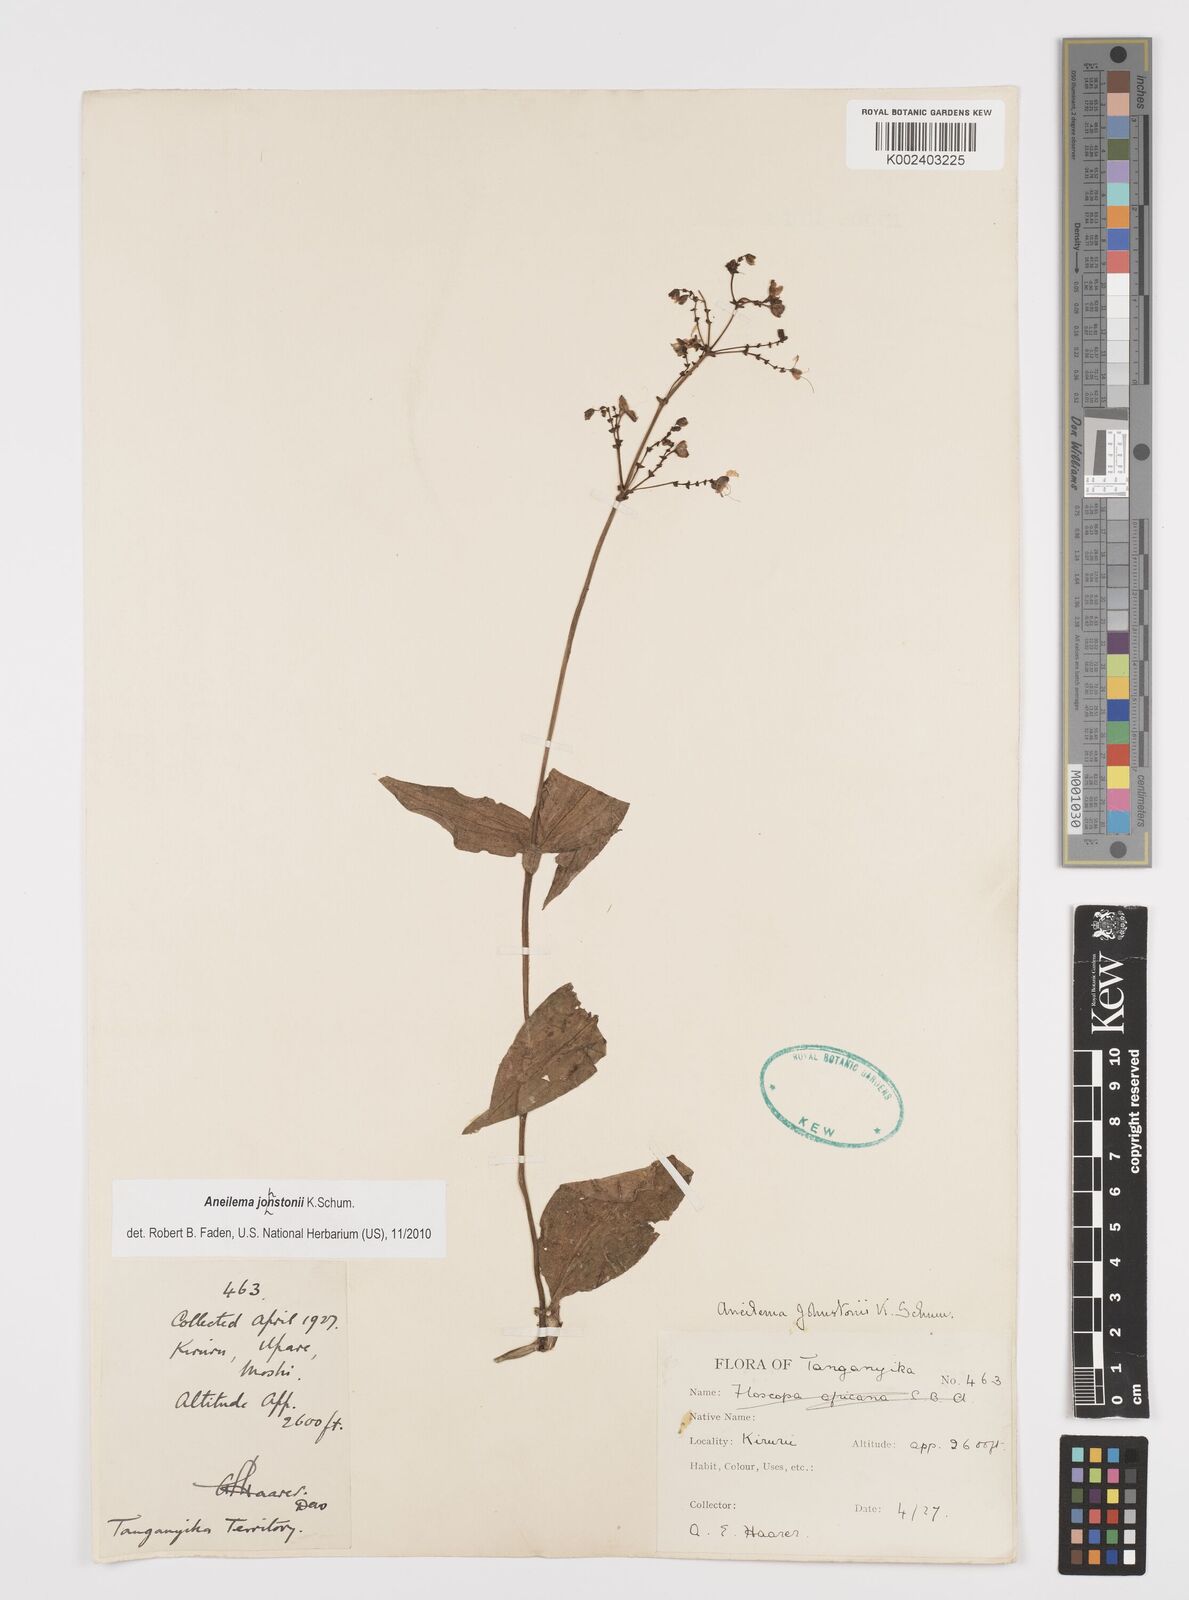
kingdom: Plantae
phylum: Tracheophyta
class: Liliopsida
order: Commelinales
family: Commelinaceae
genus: Aneilema
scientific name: Aneilema johnstonii
